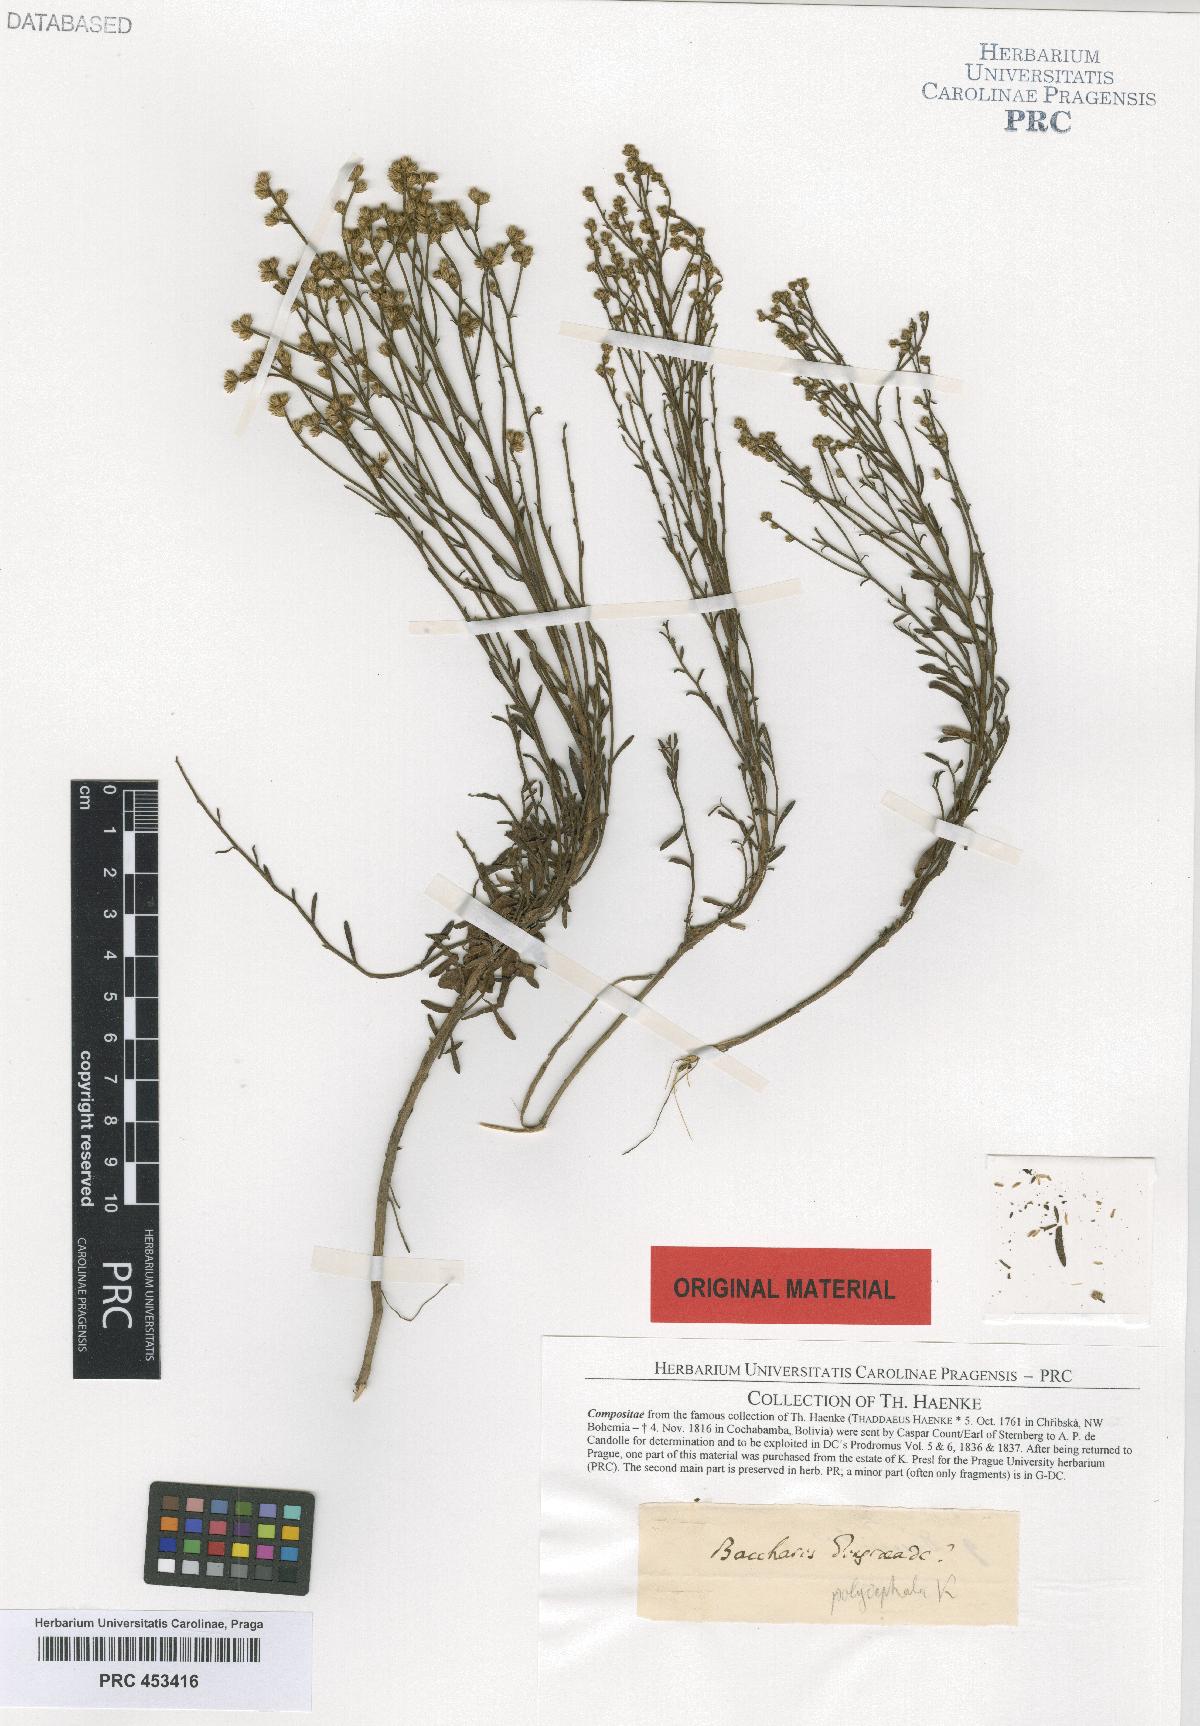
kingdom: Plantae
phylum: Tracheophyta
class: Magnoliopsida
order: Asterales
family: Asteraceae
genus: Baccharis
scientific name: Baccharis
